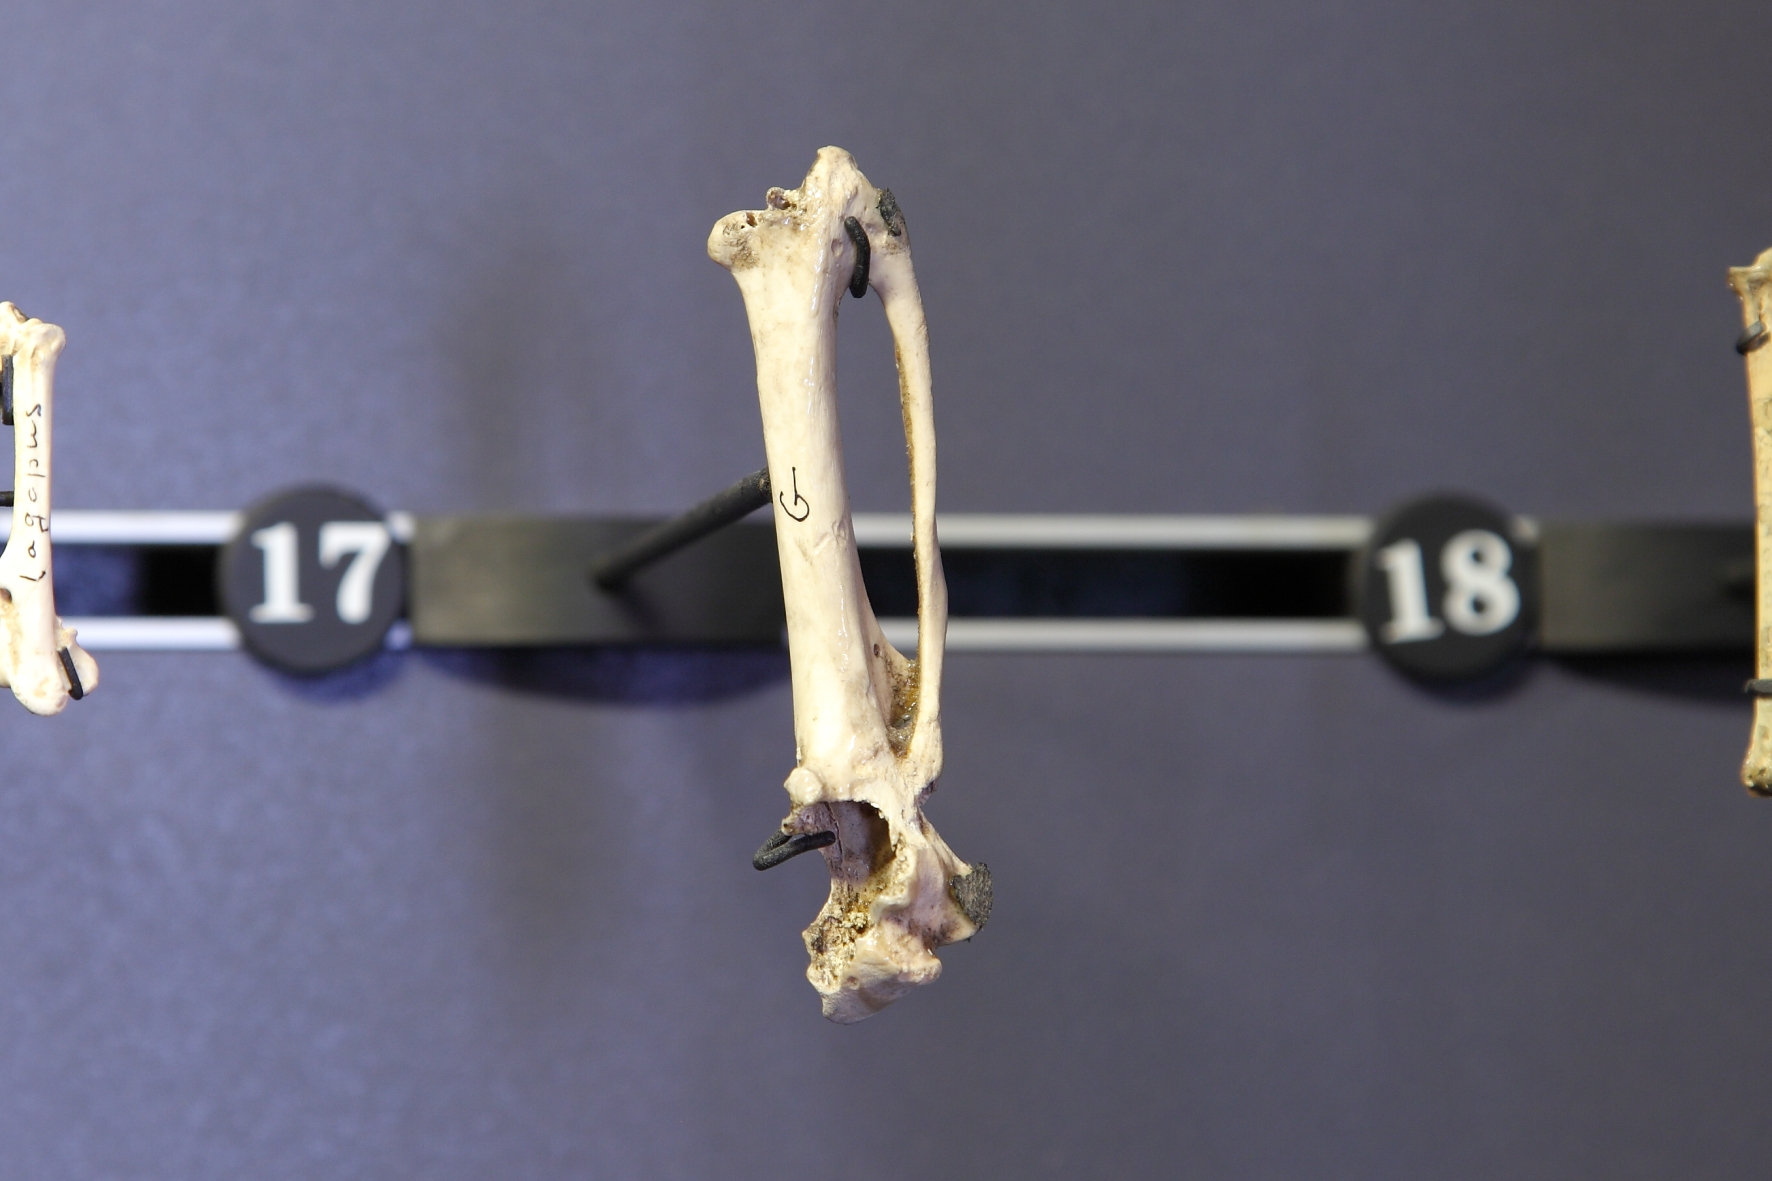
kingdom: Animalia
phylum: Chordata
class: Aves
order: Galliformes
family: Phasianidae
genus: Tetrao
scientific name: Tetrao urogallus
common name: Western capercaillie
